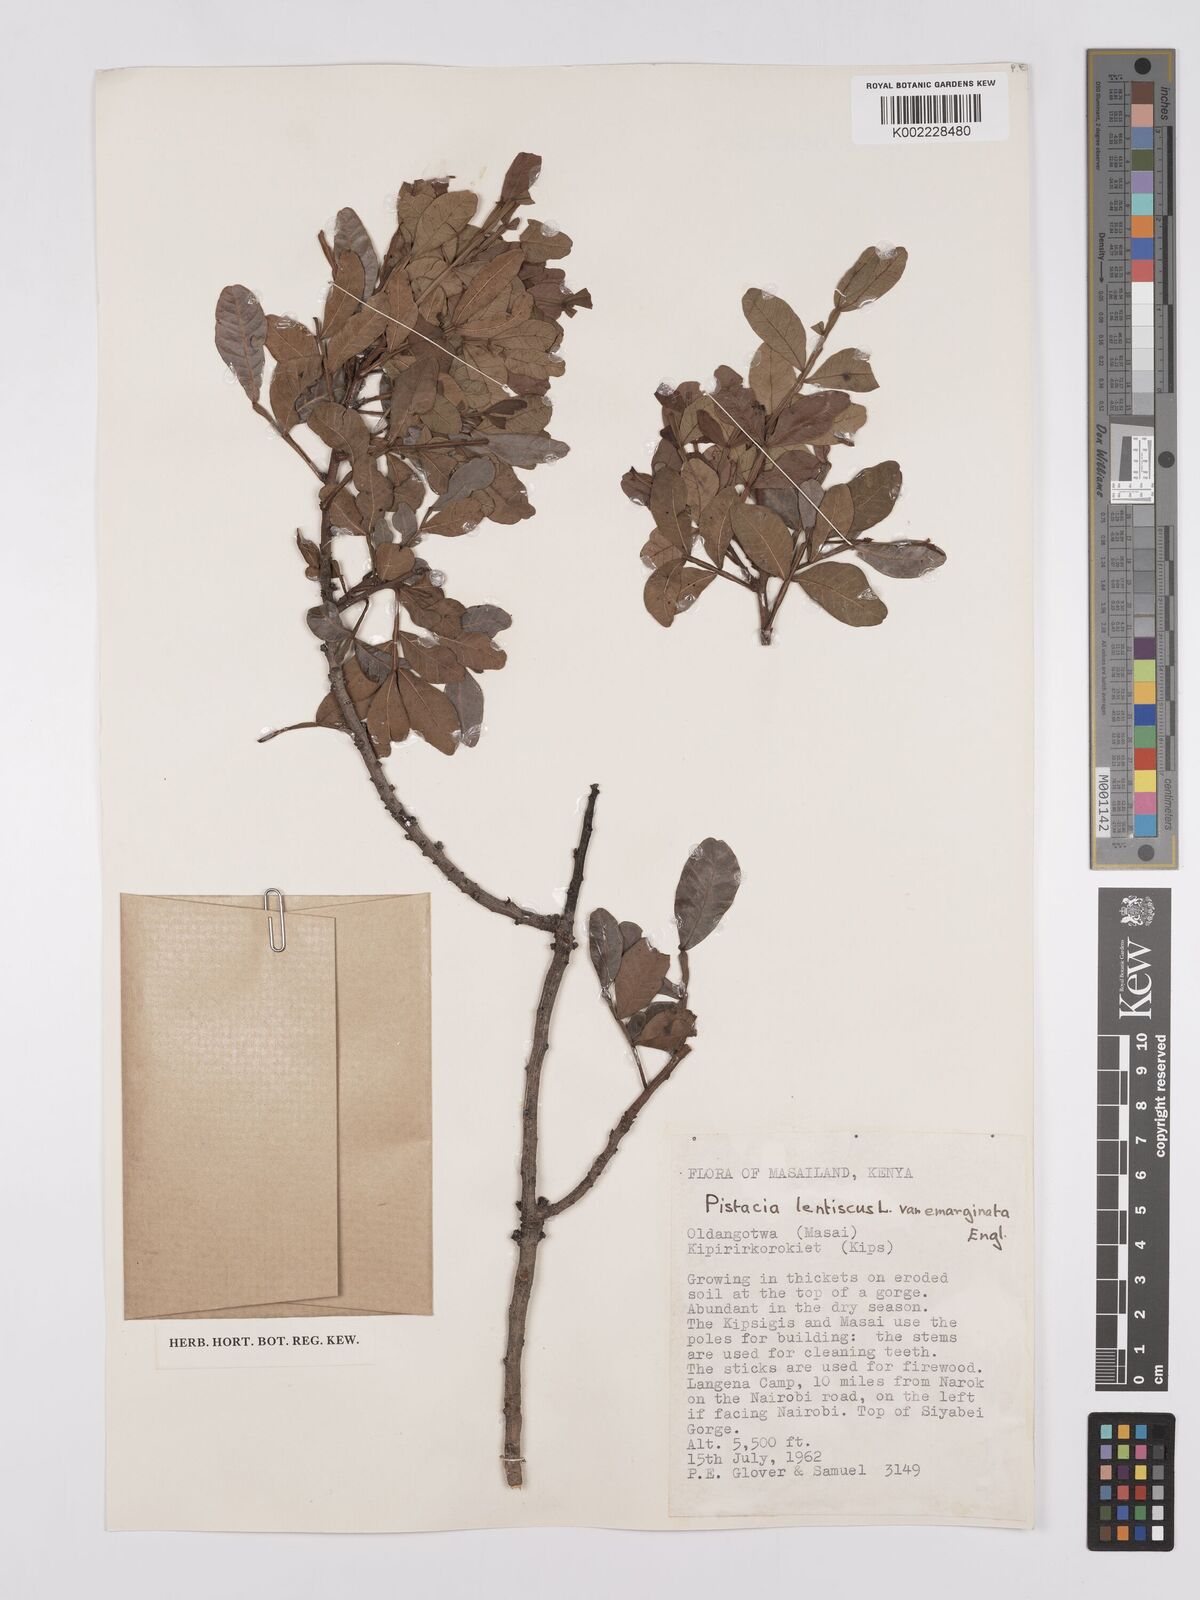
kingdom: Plantae
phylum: Tracheophyta
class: Magnoliopsida
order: Sapindales
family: Anacardiaceae
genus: Pistacia
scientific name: Pistacia lentiscus
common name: Lentisk
